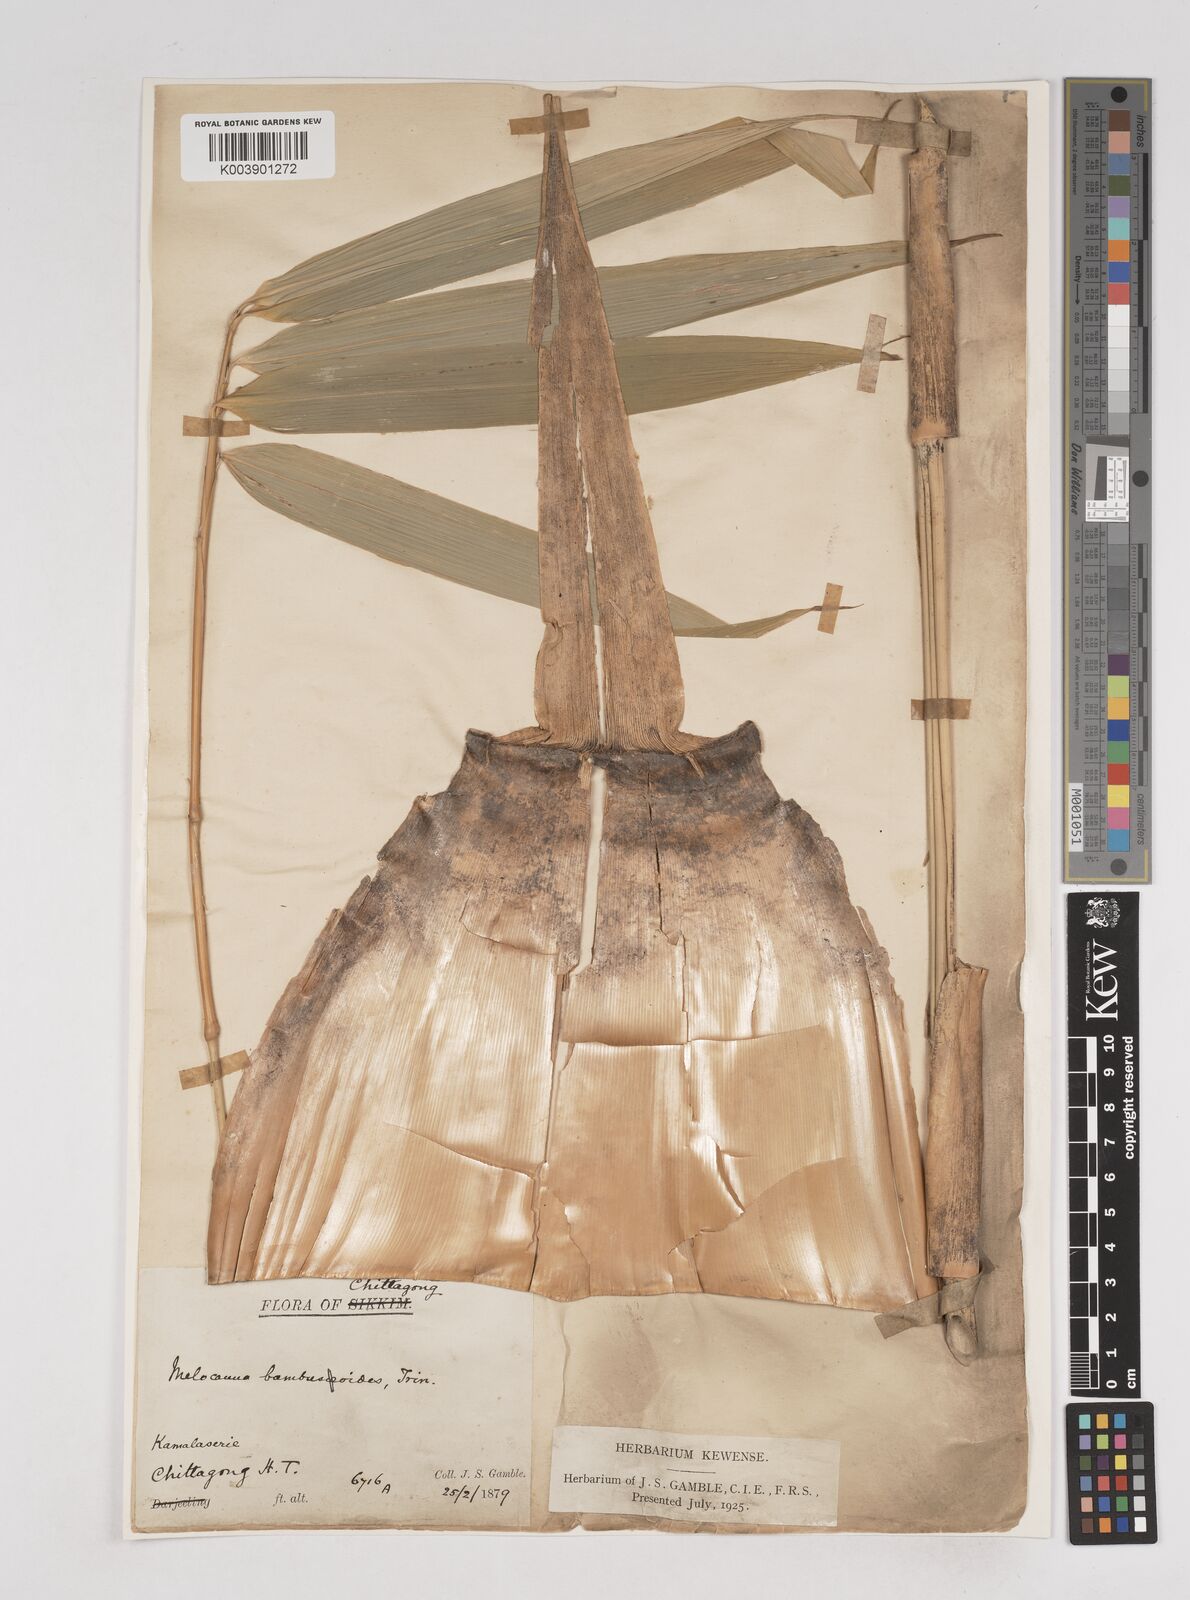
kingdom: Plantae
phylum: Tracheophyta
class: Liliopsida
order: Poales
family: Poaceae
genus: Melocanna
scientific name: Melocanna baccifera
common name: Berry bamboo
